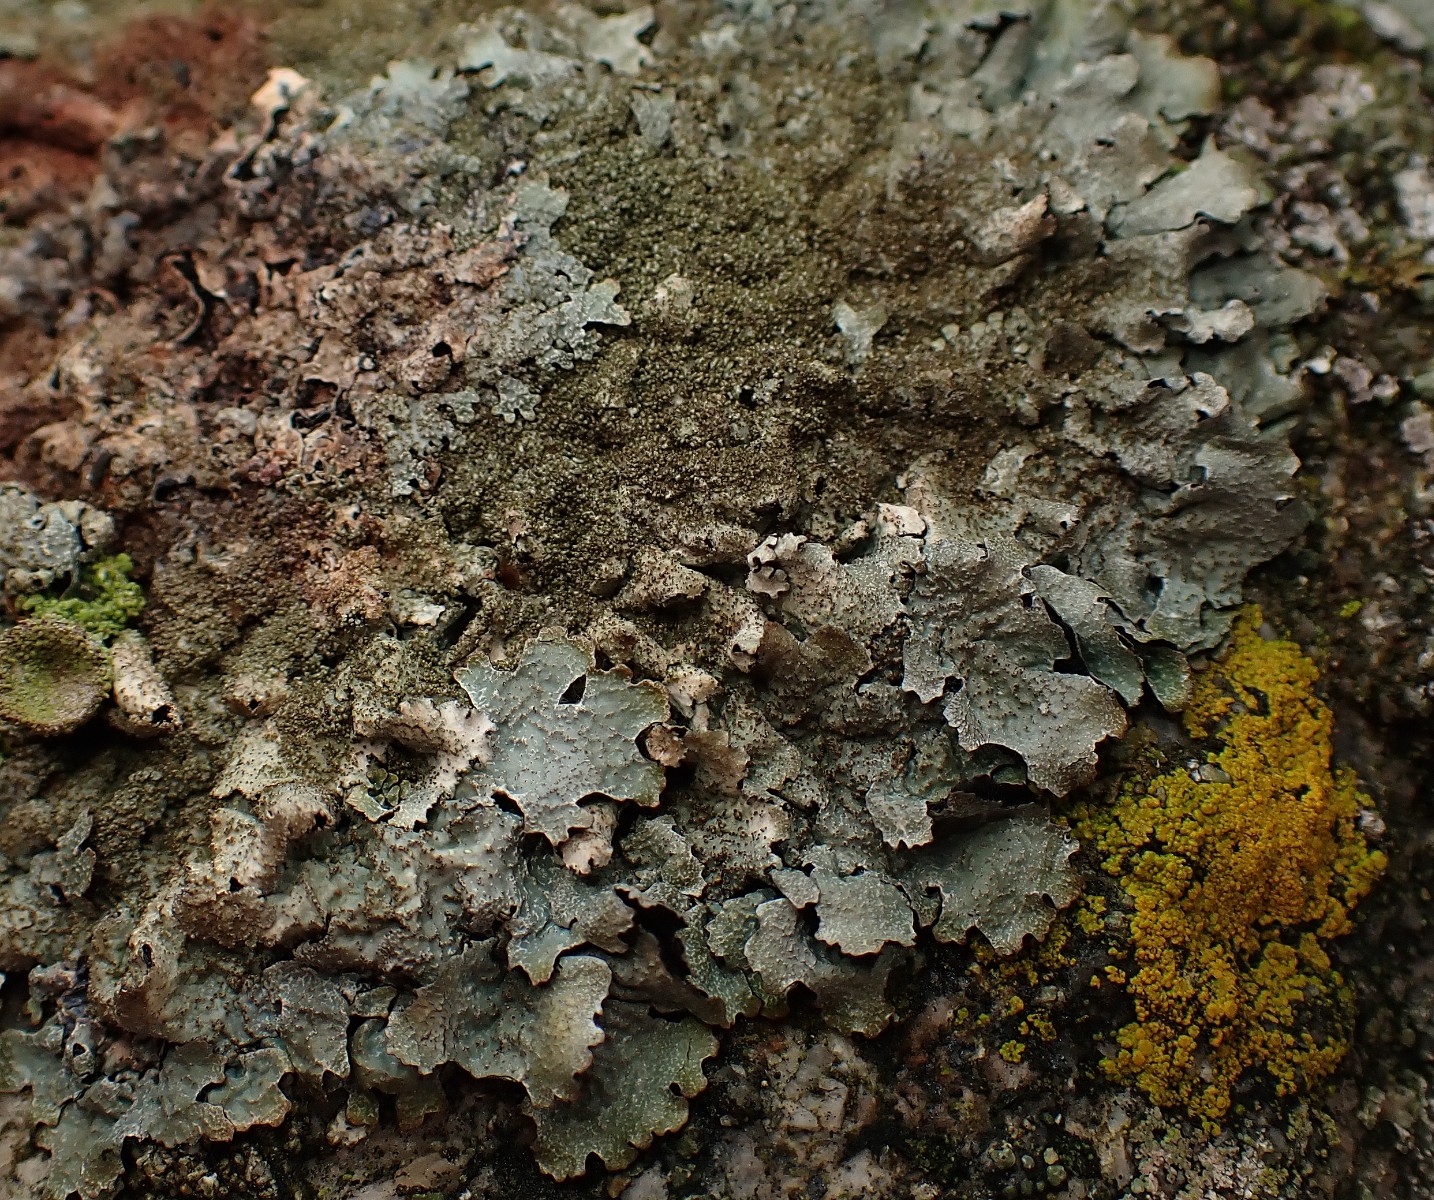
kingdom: Fungi
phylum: Ascomycota
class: Lecanoromycetes
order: Lecanorales
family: Parmeliaceae
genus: Parmelia
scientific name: Parmelia saxatilis
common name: farve-skållav
